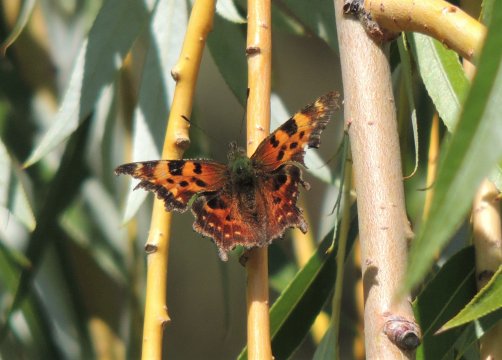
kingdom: Animalia
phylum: Arthropoda
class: Insecta
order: Lepidoptera
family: Nymphalidae
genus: Polygonia
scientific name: Polygonia faunus
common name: Green Comma
